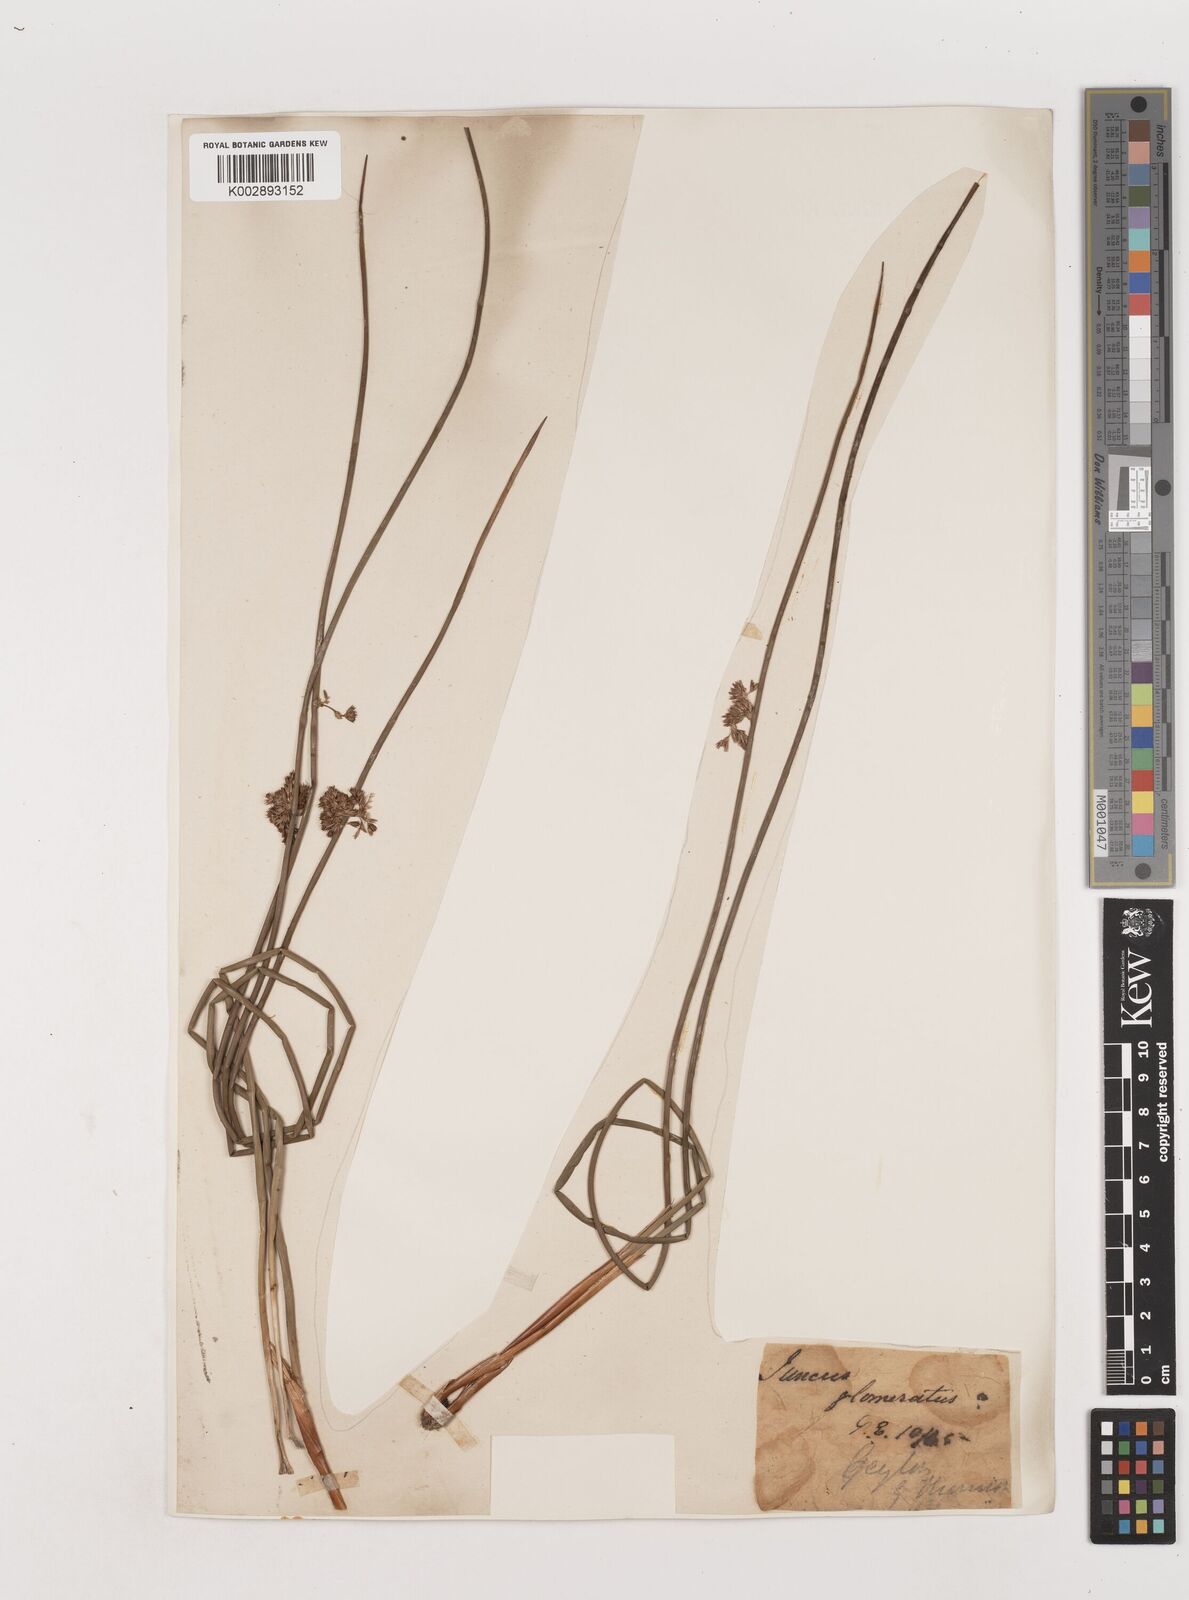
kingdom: Plantae
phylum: Tracheophyta
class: Liliopsida
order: Poales
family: Juncaceae
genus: Juncus
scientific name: Juncus effusus
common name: Soft rush
